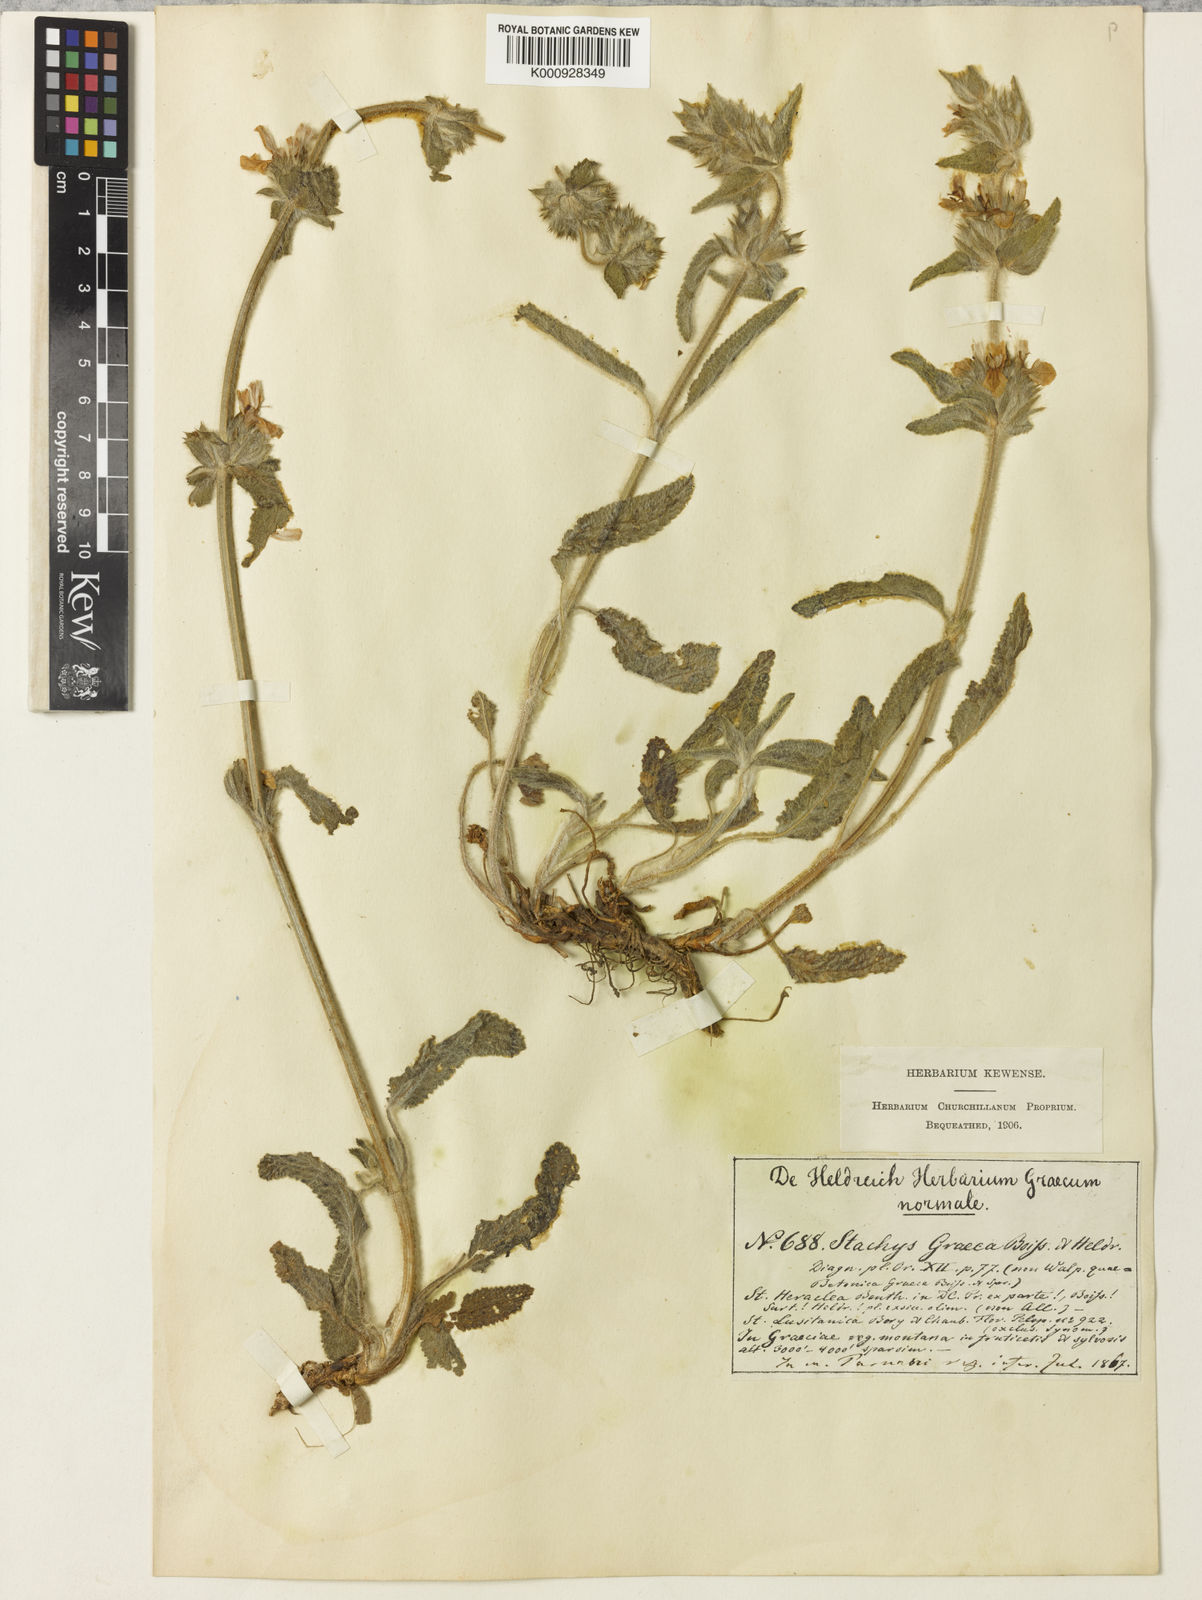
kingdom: Plantae
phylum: Tracheophyta
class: Magnoliopsida
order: Lamiales
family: Lamiaceae
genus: Stachys
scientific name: Stachys germanica
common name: Downy woundwort
